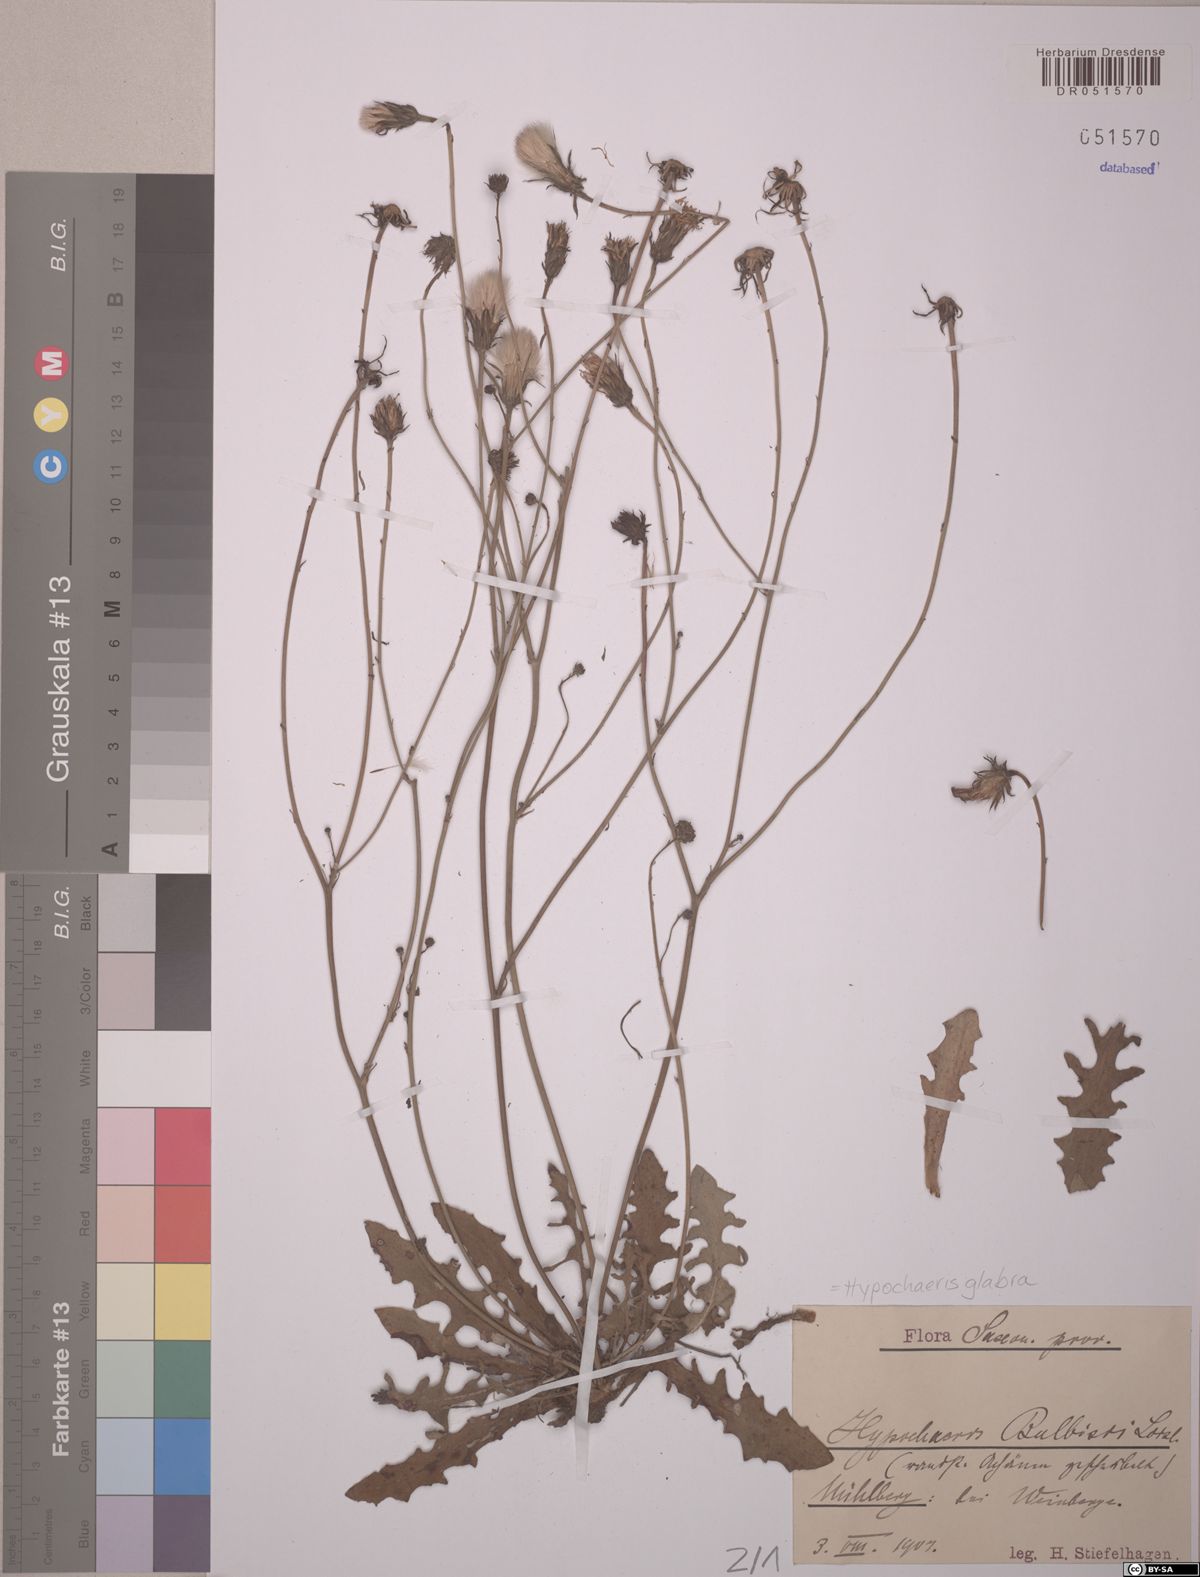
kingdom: Plantae
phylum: Tracheophyta
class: Magnoliopsida
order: Asterales
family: Asteraceae
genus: Hypochaeris
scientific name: Hypochaeris glabra
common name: Smooth catsear
